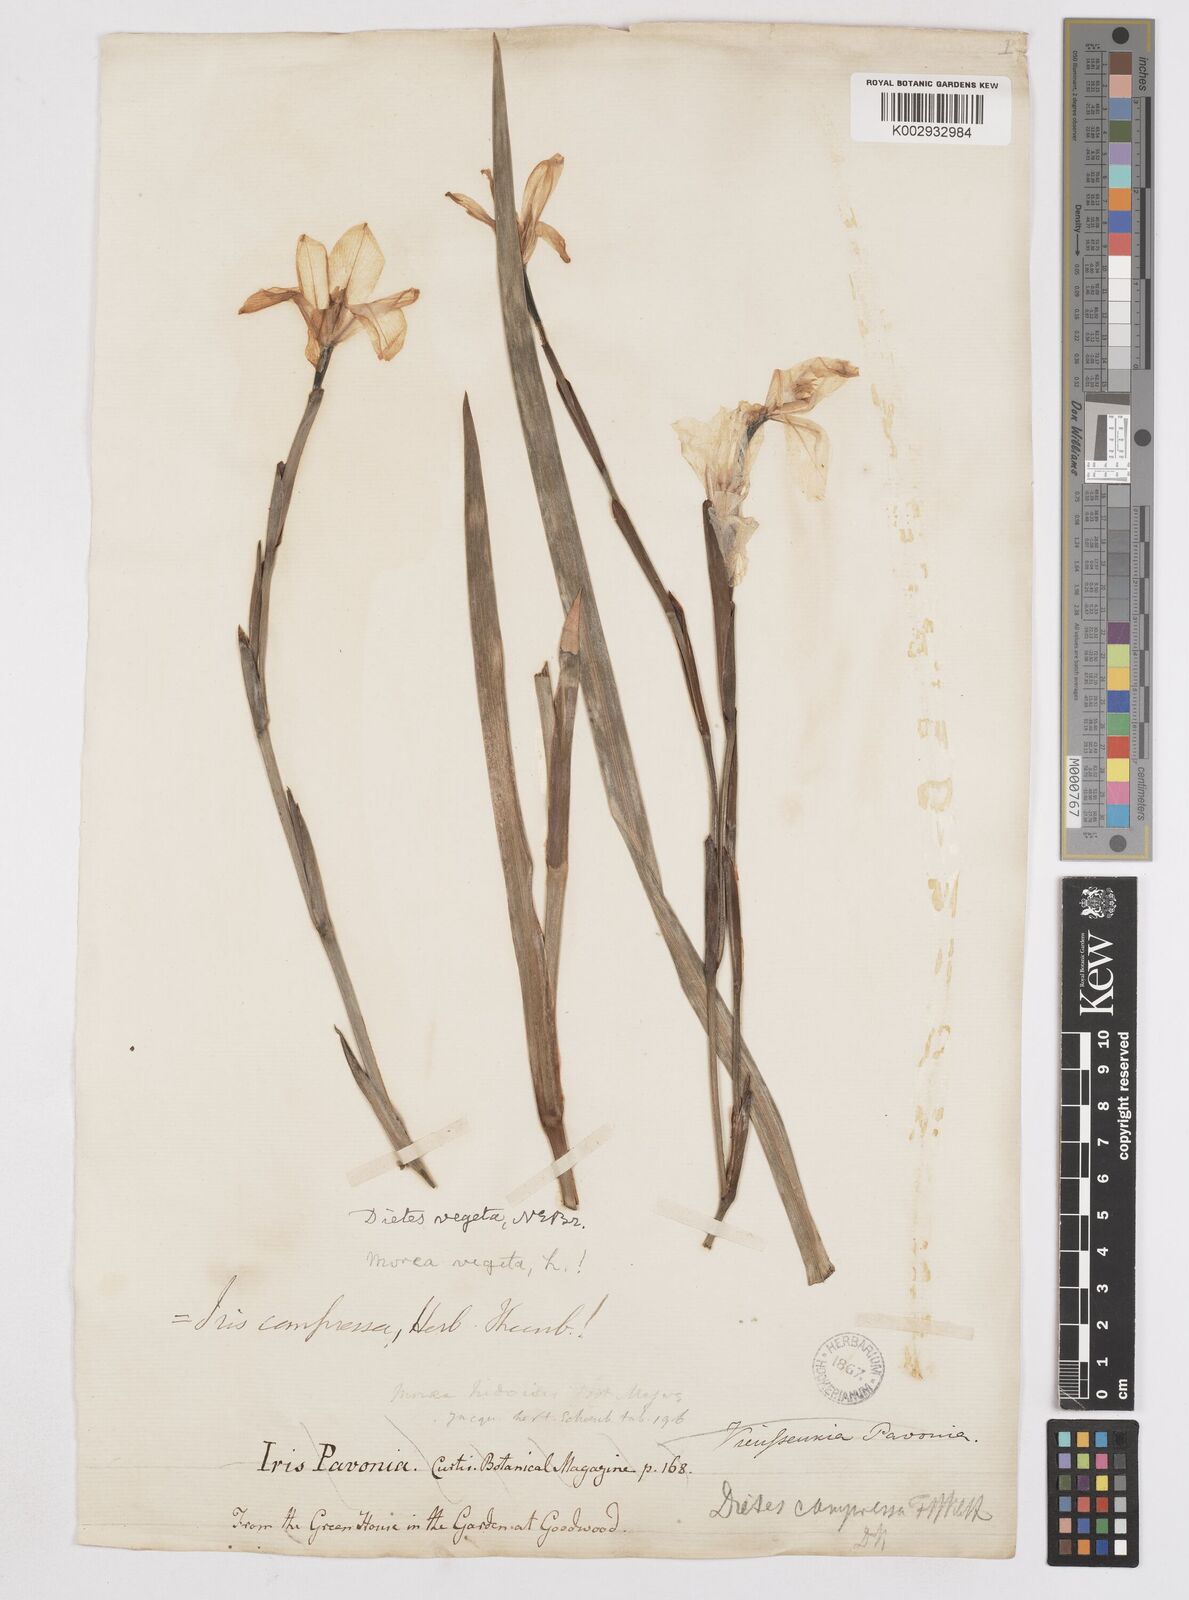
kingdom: Plantae
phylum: Tracheophyta
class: Liliopsida
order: Asparagales
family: Iridaceae
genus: Dietes
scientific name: Dietes iridioides
